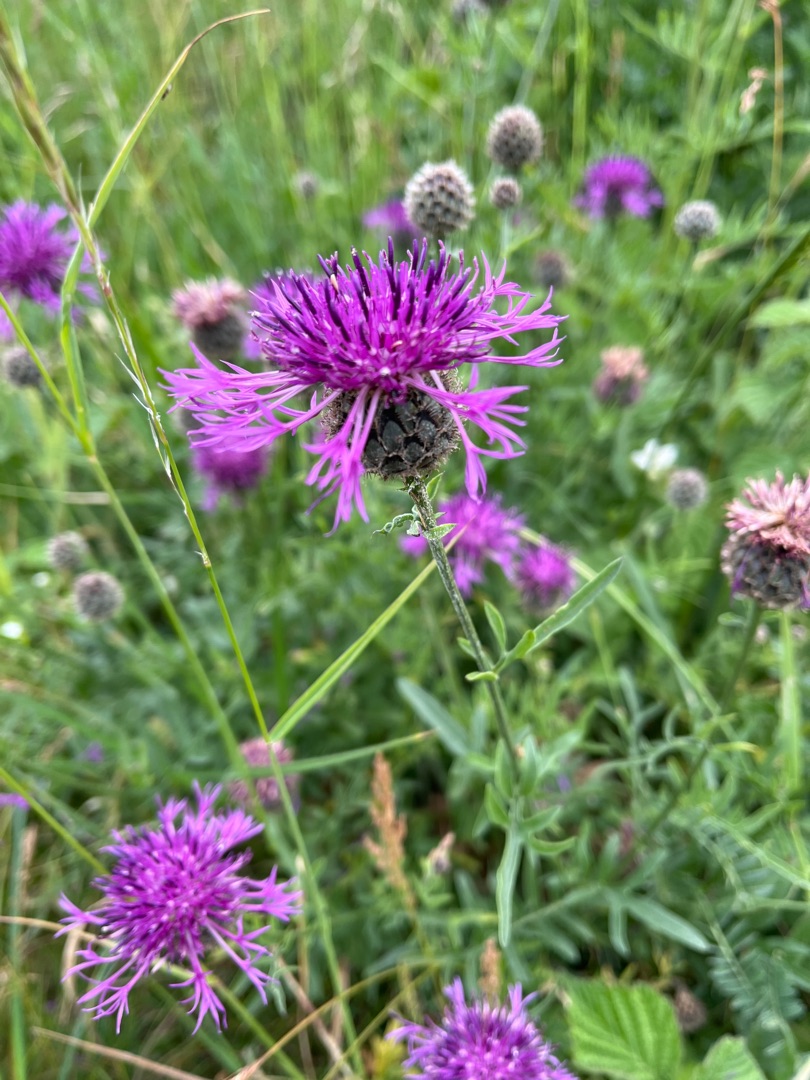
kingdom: Plantae
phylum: Tracheophyta
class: Magnoliopsida
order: Asterales
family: Asteraceae
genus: Centaurea
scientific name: Centaurea scabiosa
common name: Stor knopurt
